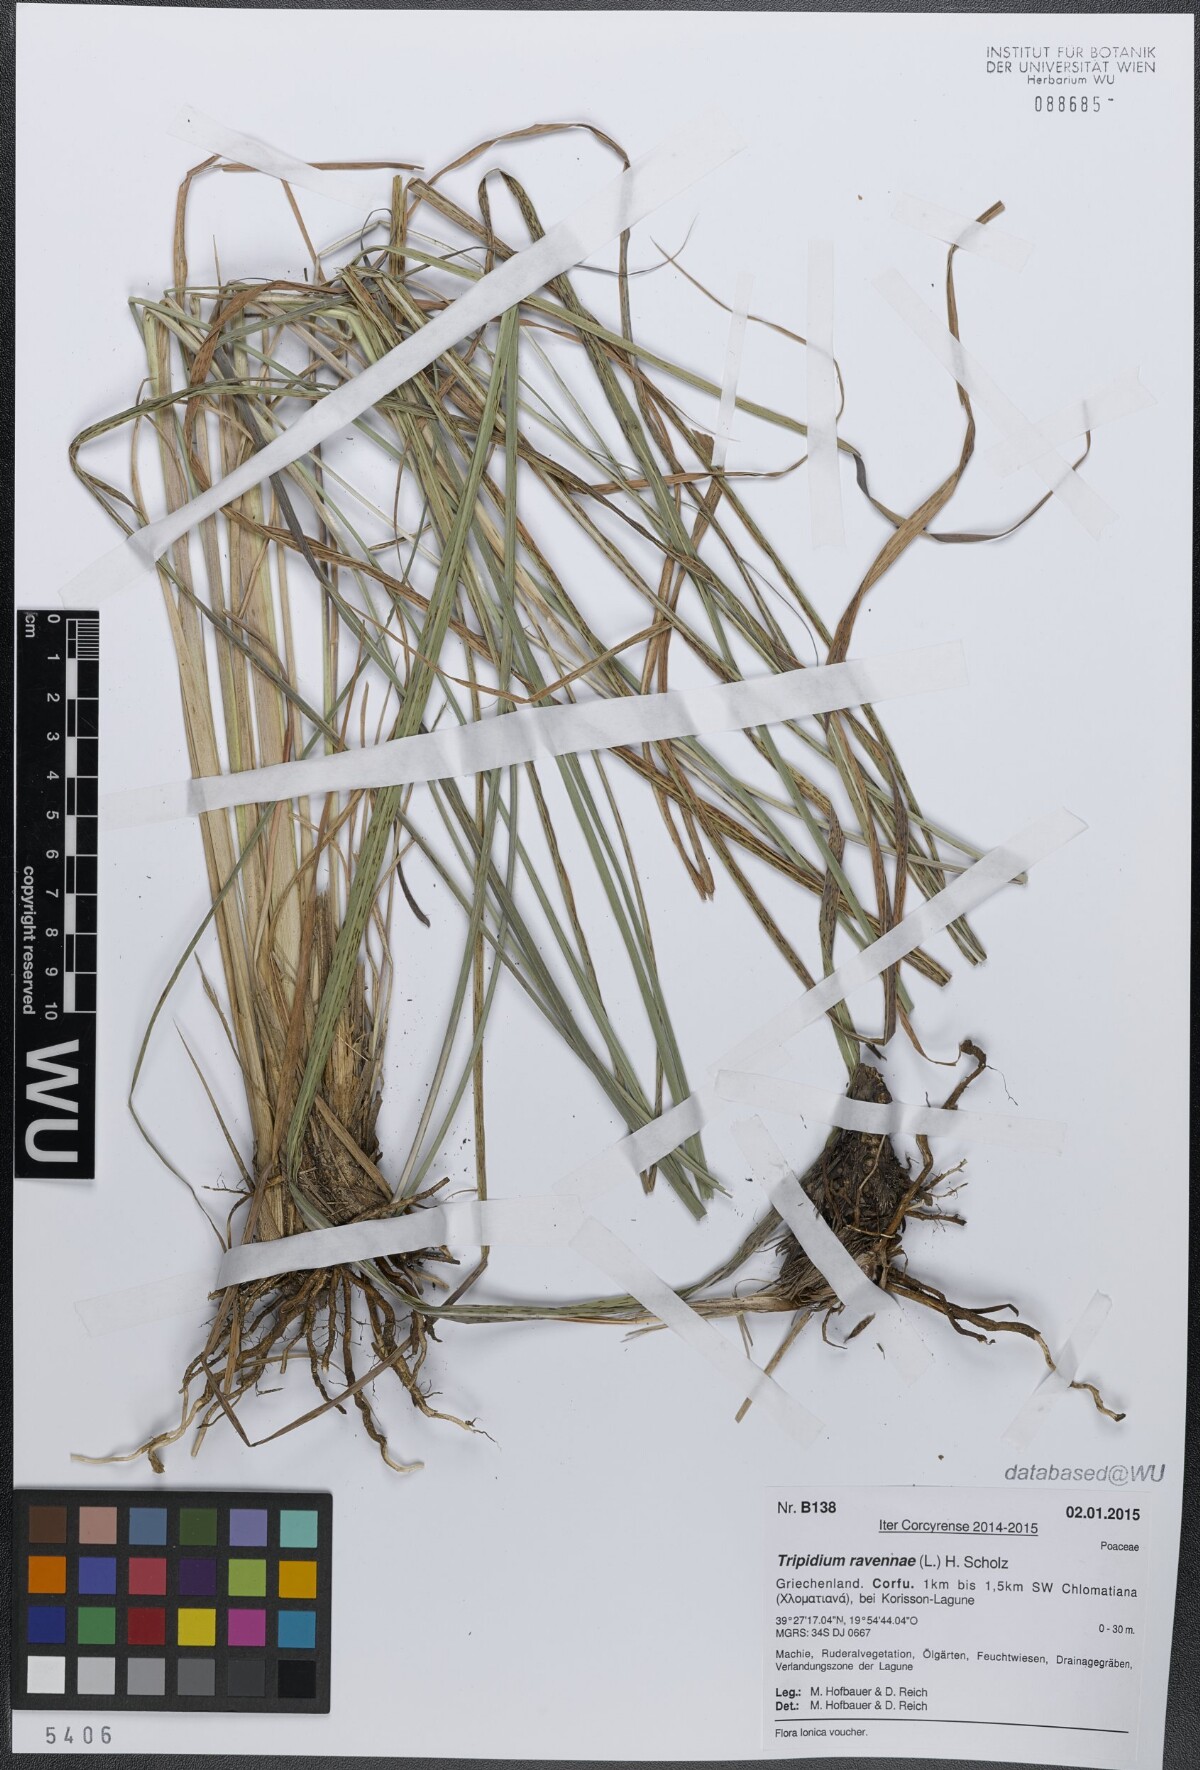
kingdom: Plantae
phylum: Tracheophyta
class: Liliopsida
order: Poales
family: Poaceae
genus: Tripidium
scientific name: Tripidium ravennae
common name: Ravenna grass
